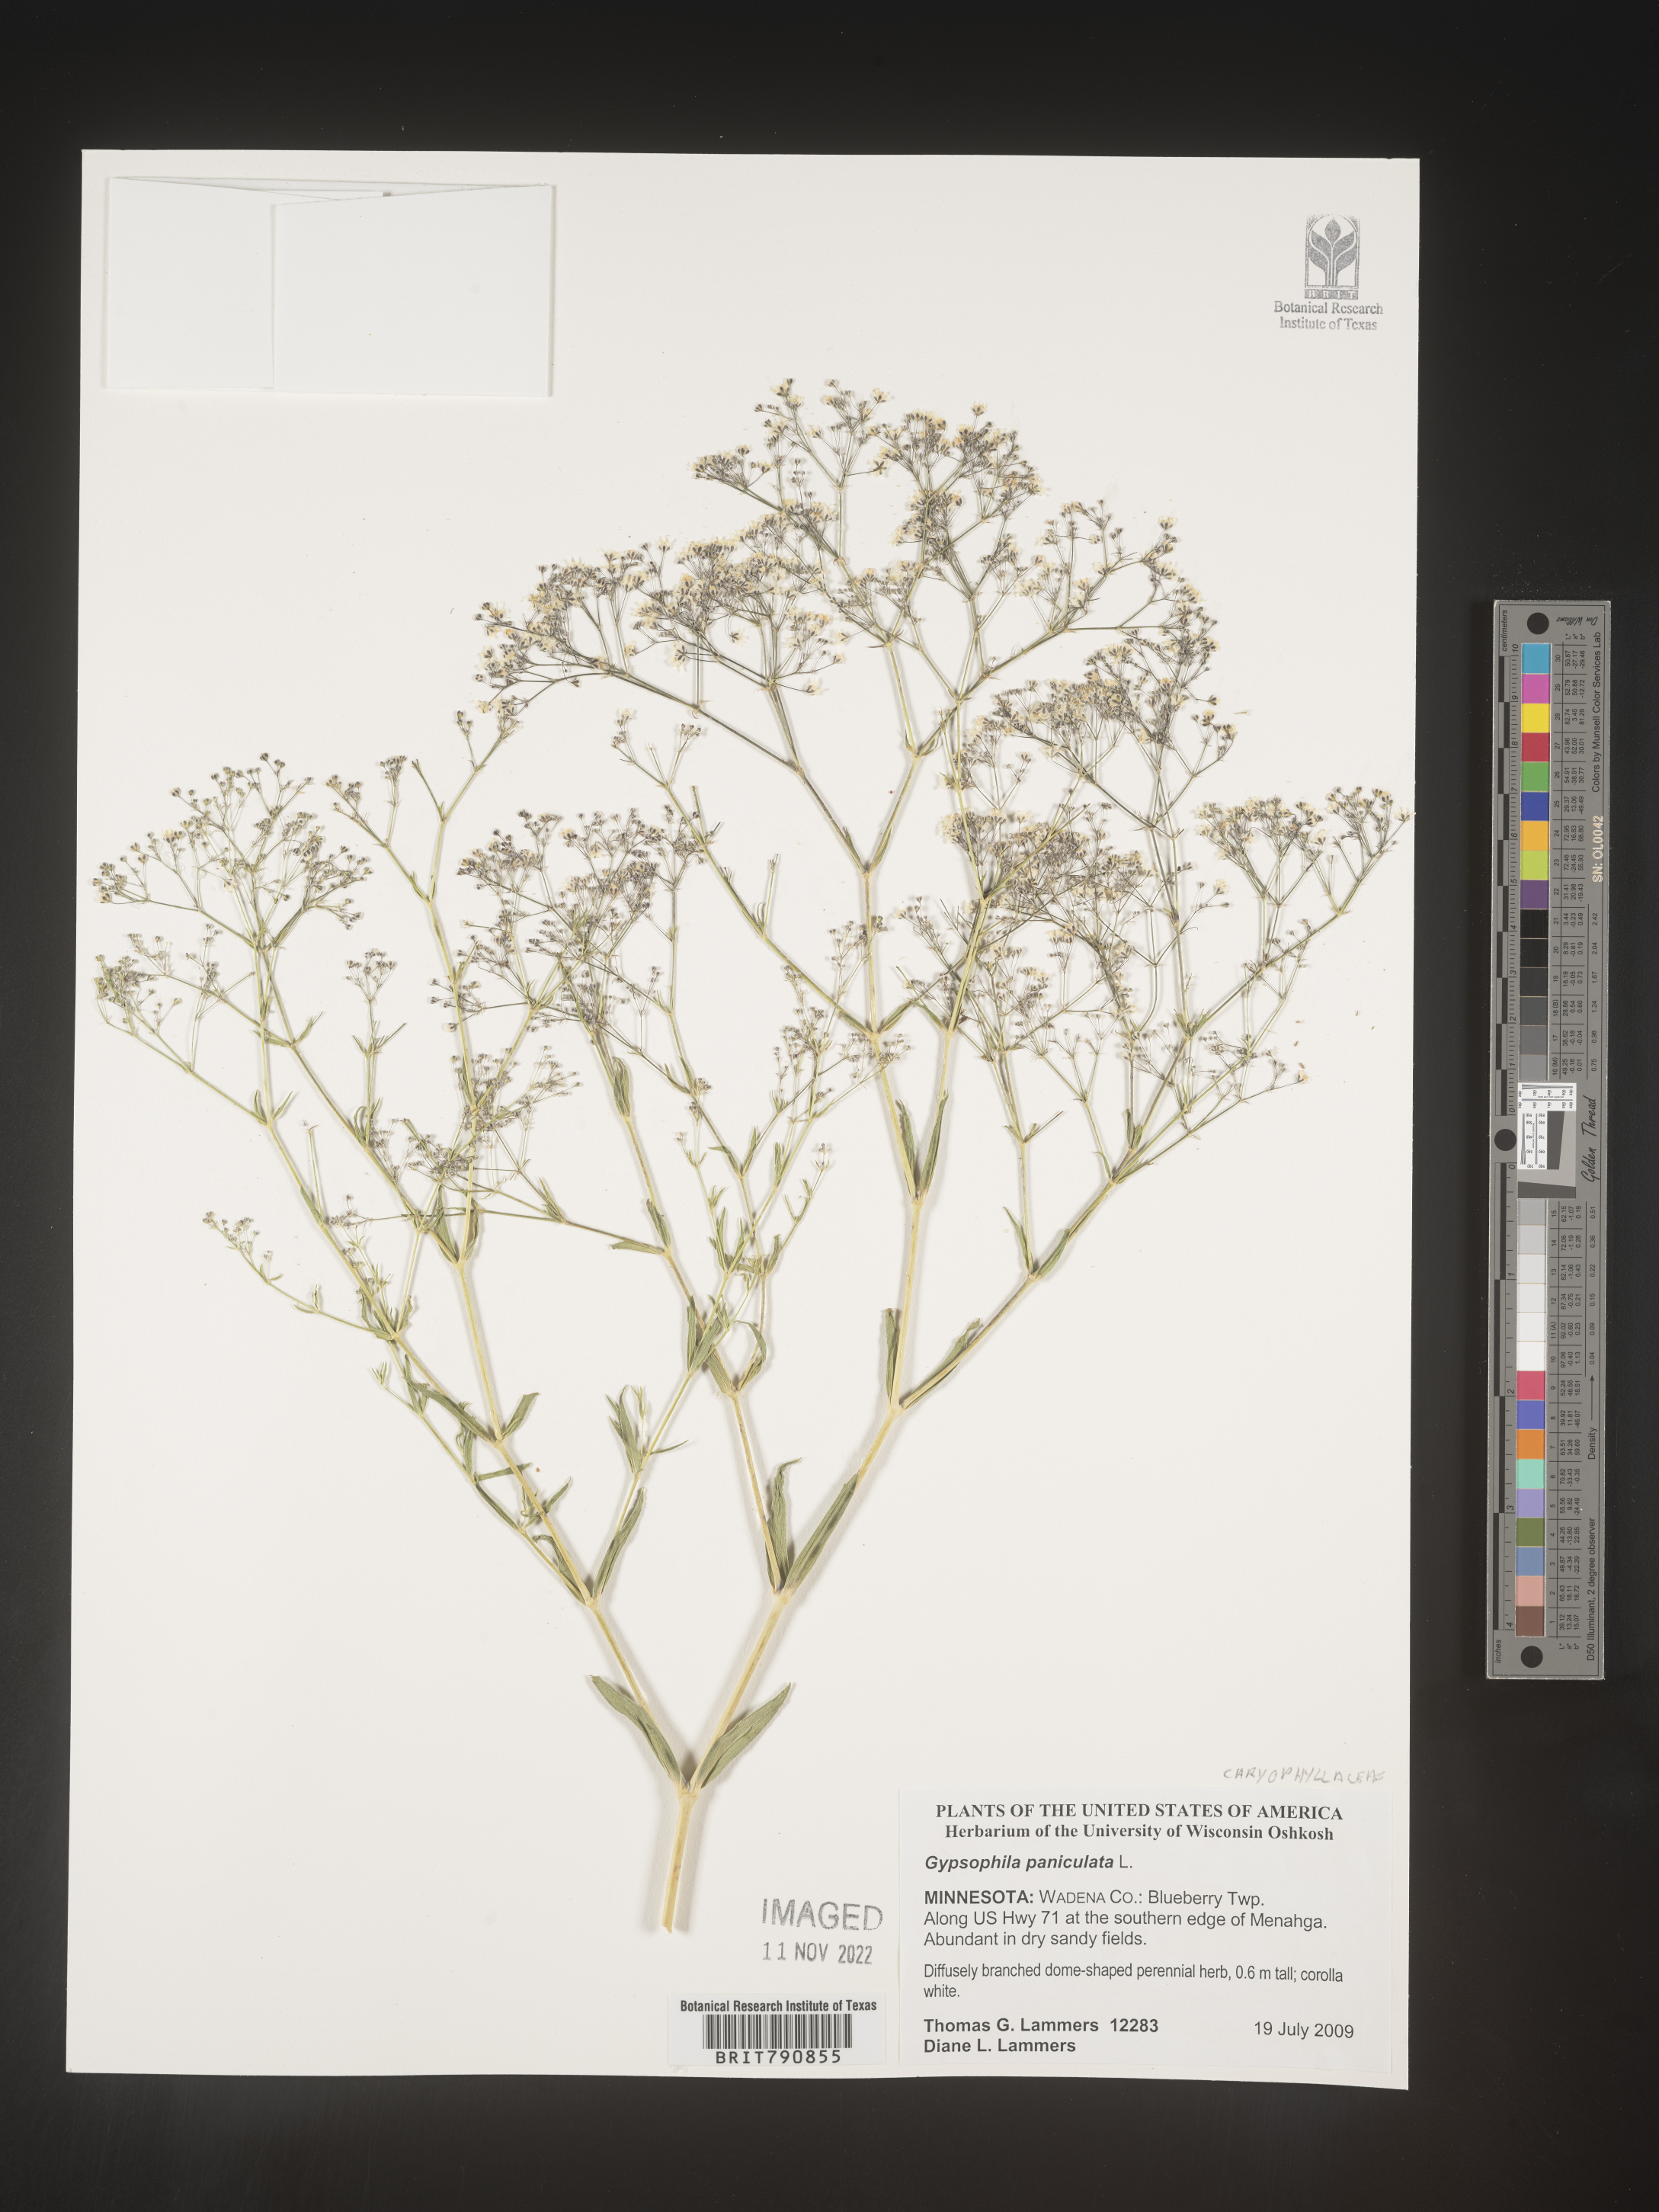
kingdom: Plantae
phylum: Tracheophyta
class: Magnoliopsida
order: Caryophyllales
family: Caryophyllaceae
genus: Gypsophila
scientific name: Gypsophila
